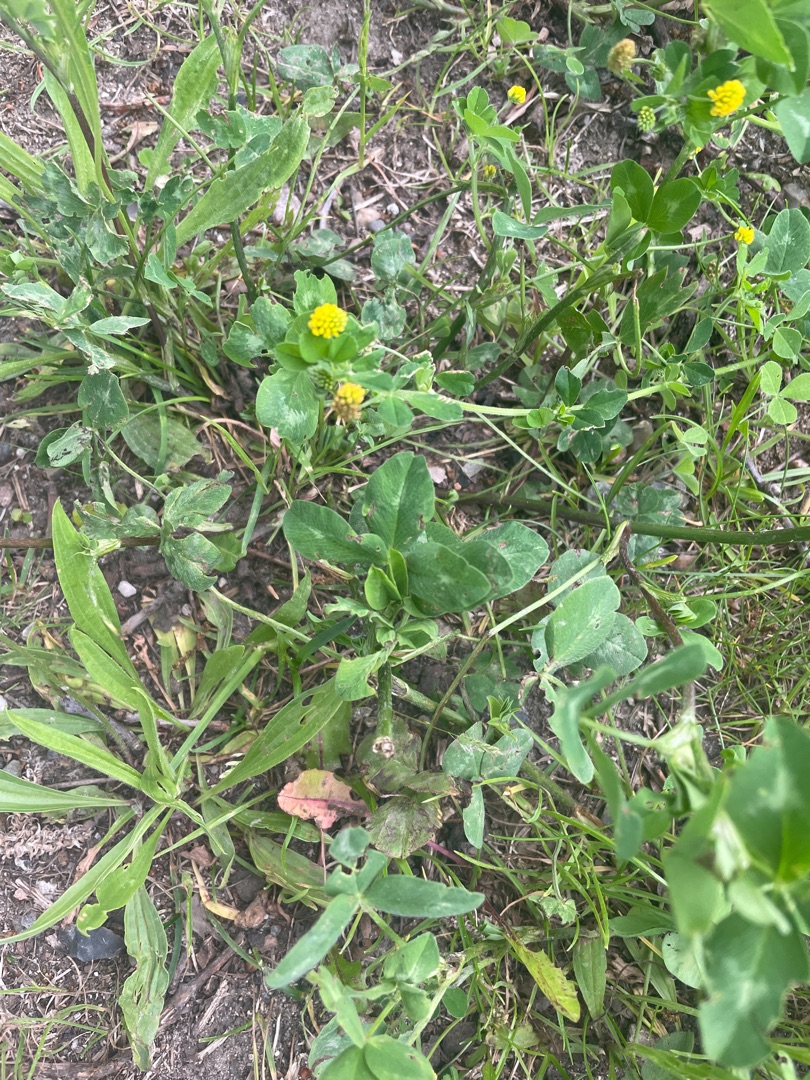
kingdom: Plantae
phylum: Tracheophyta
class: Magnoliopsida
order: Fabales
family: Fabaceae
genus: Medicago
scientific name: Medicago lupulina
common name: Humle-sneglebælg
